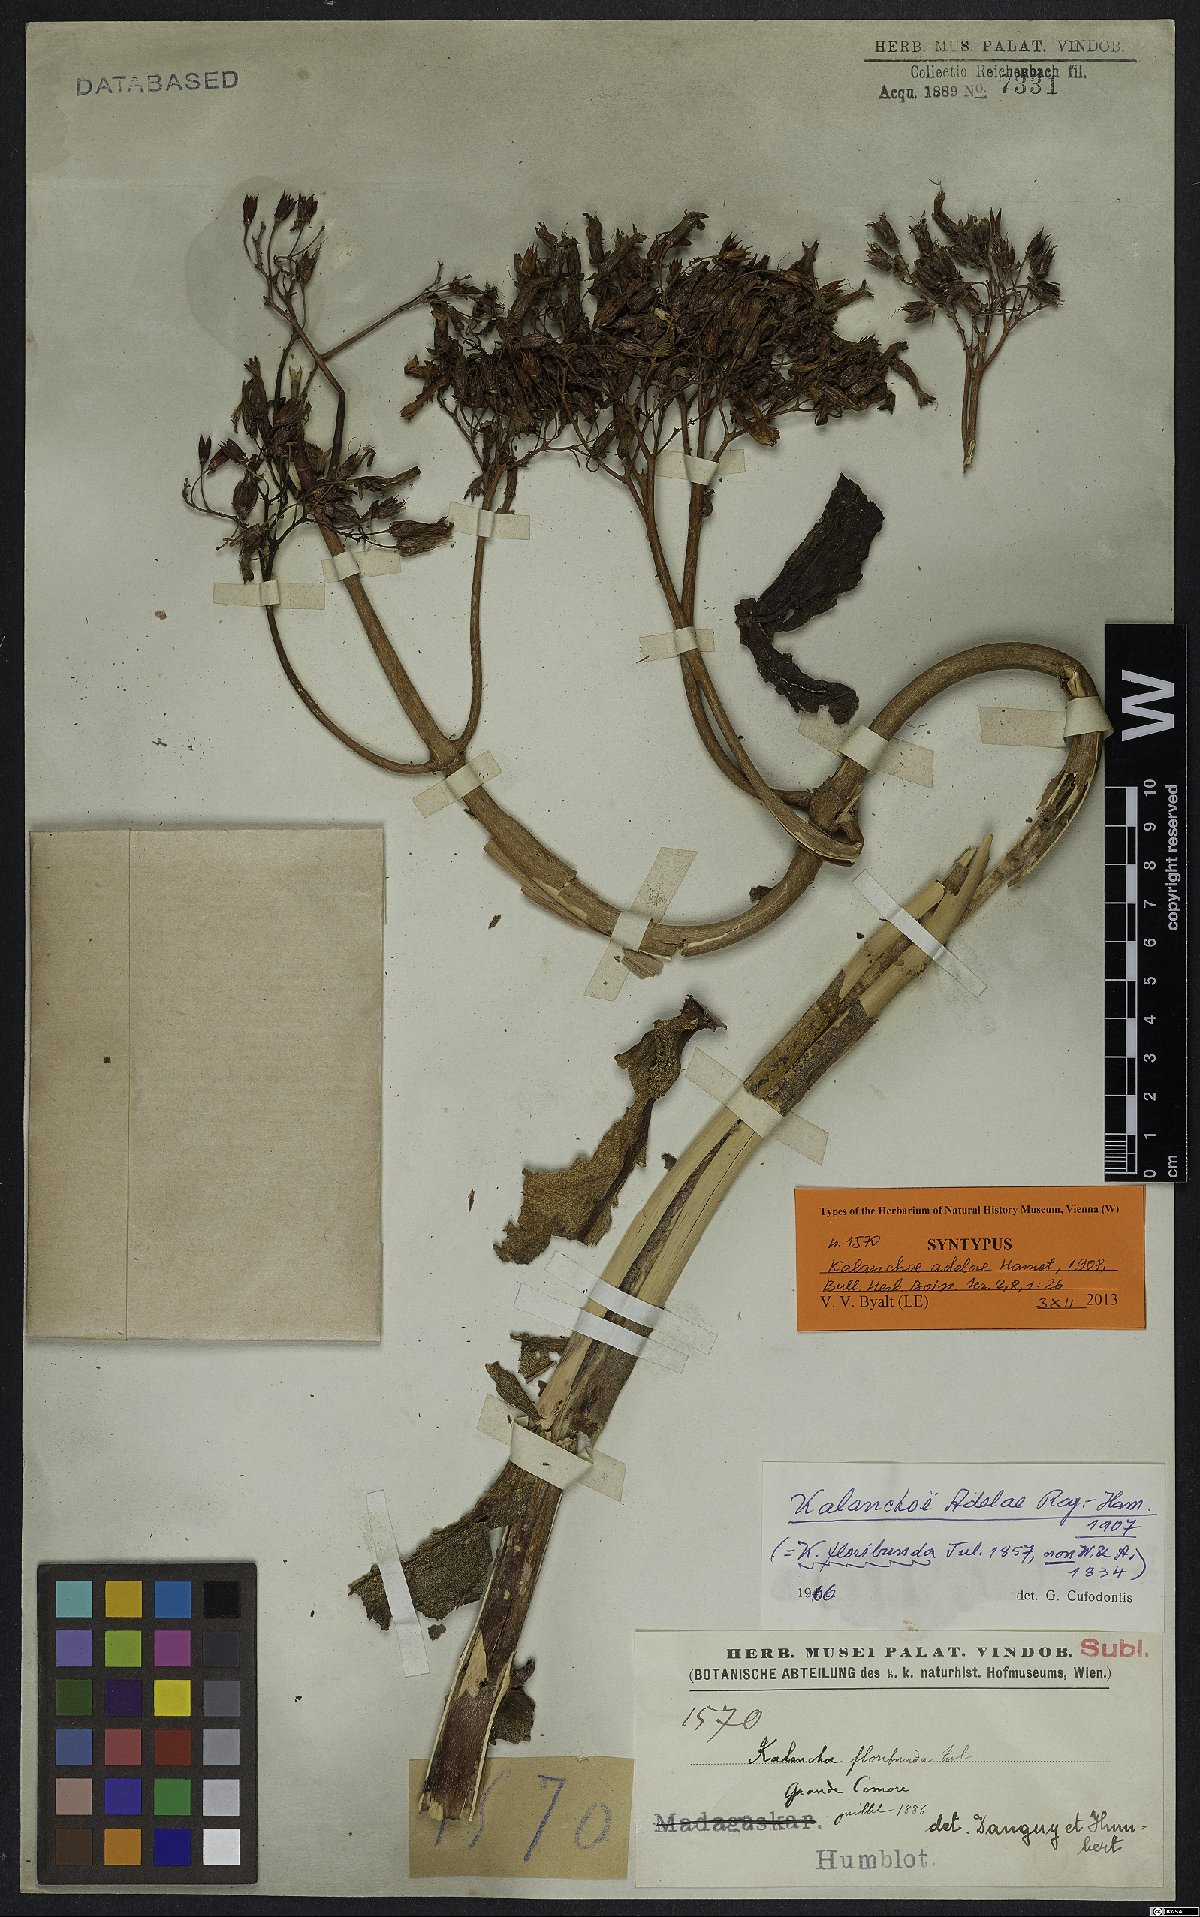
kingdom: Plantae
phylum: Tracheophyta
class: Magnoliopsida
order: Saxifragales
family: Crassulaceae
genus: Kalanchoe
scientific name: Kalanchoe adelae
